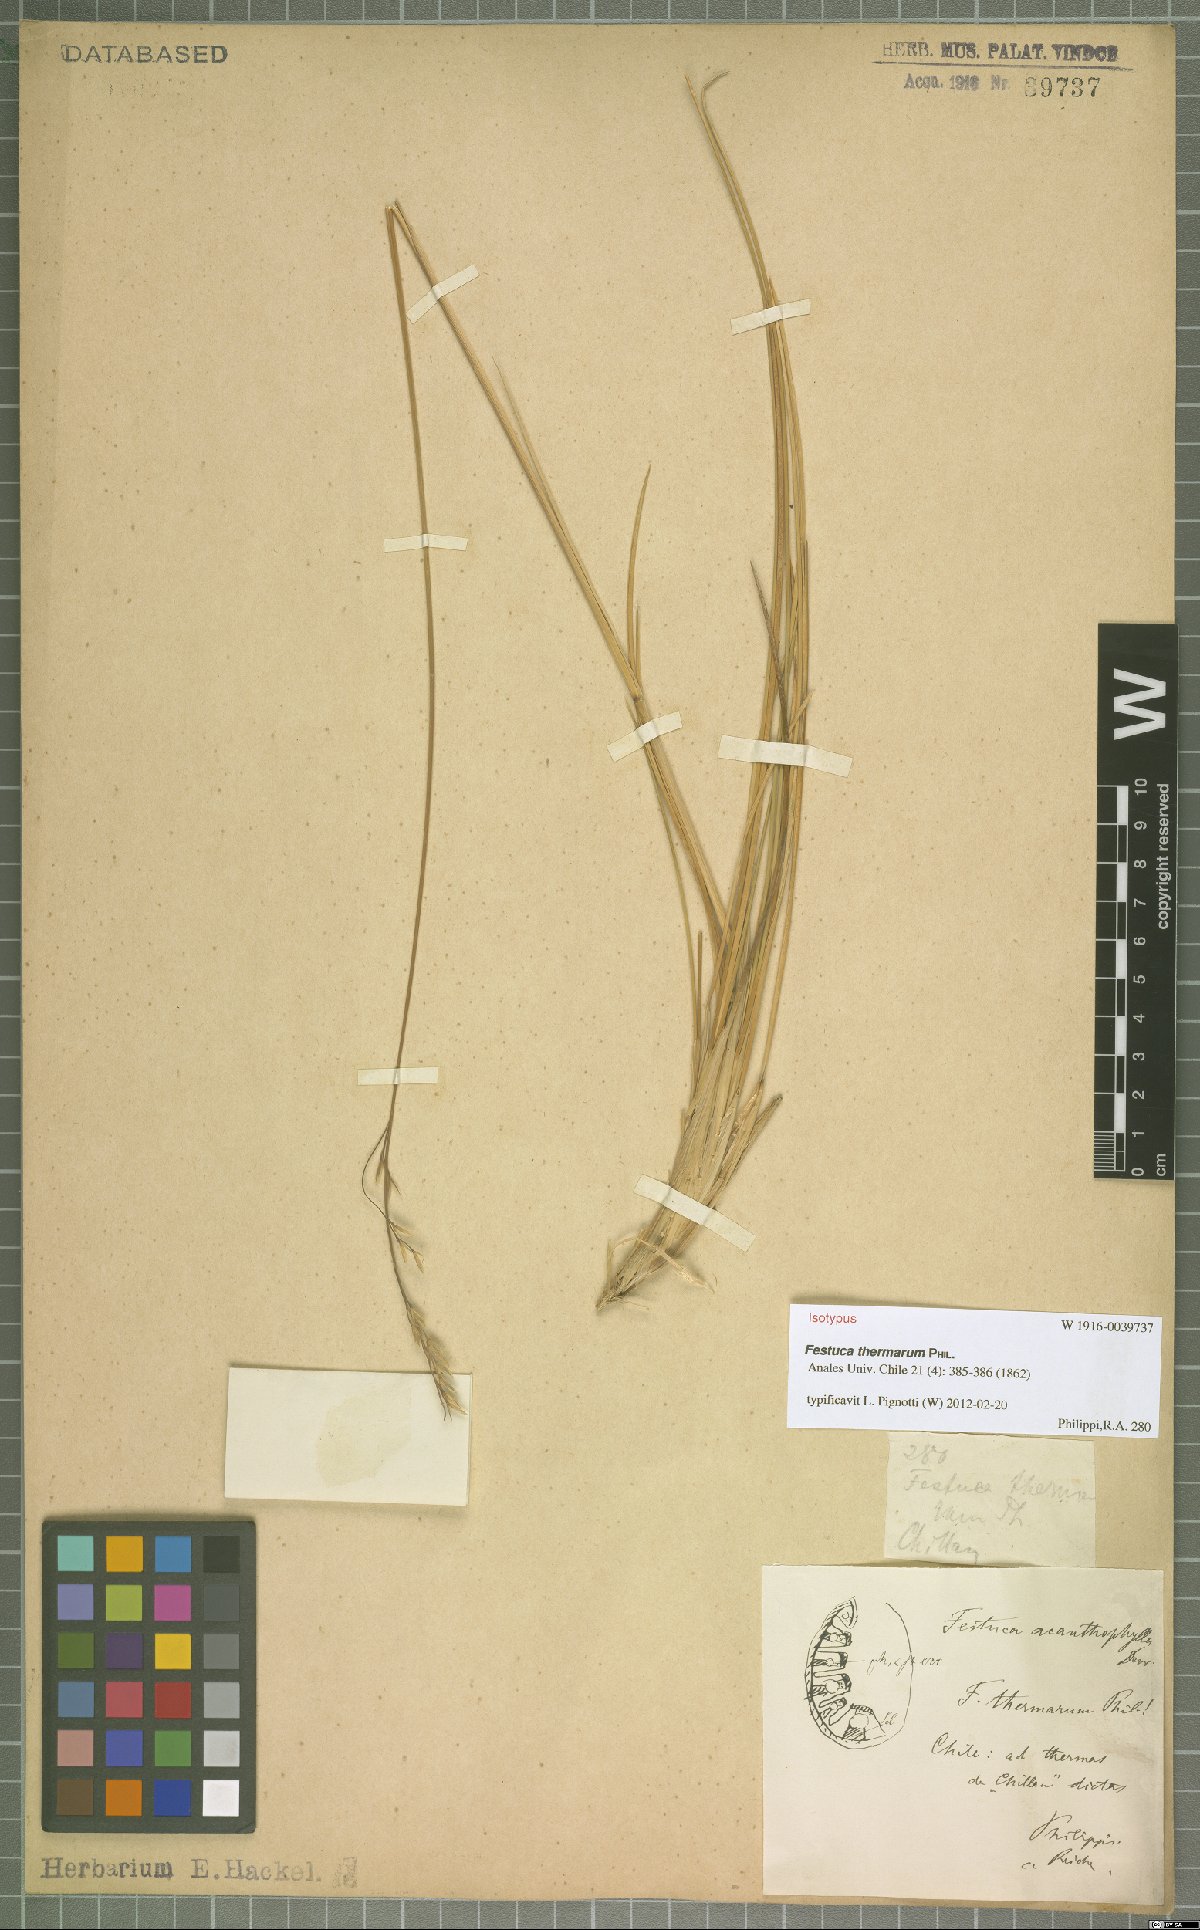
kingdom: Plantae
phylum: Tracheophyta
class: Liliopsida
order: Poales
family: Poaceae
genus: Festuca
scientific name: Festuca acanthophylla
